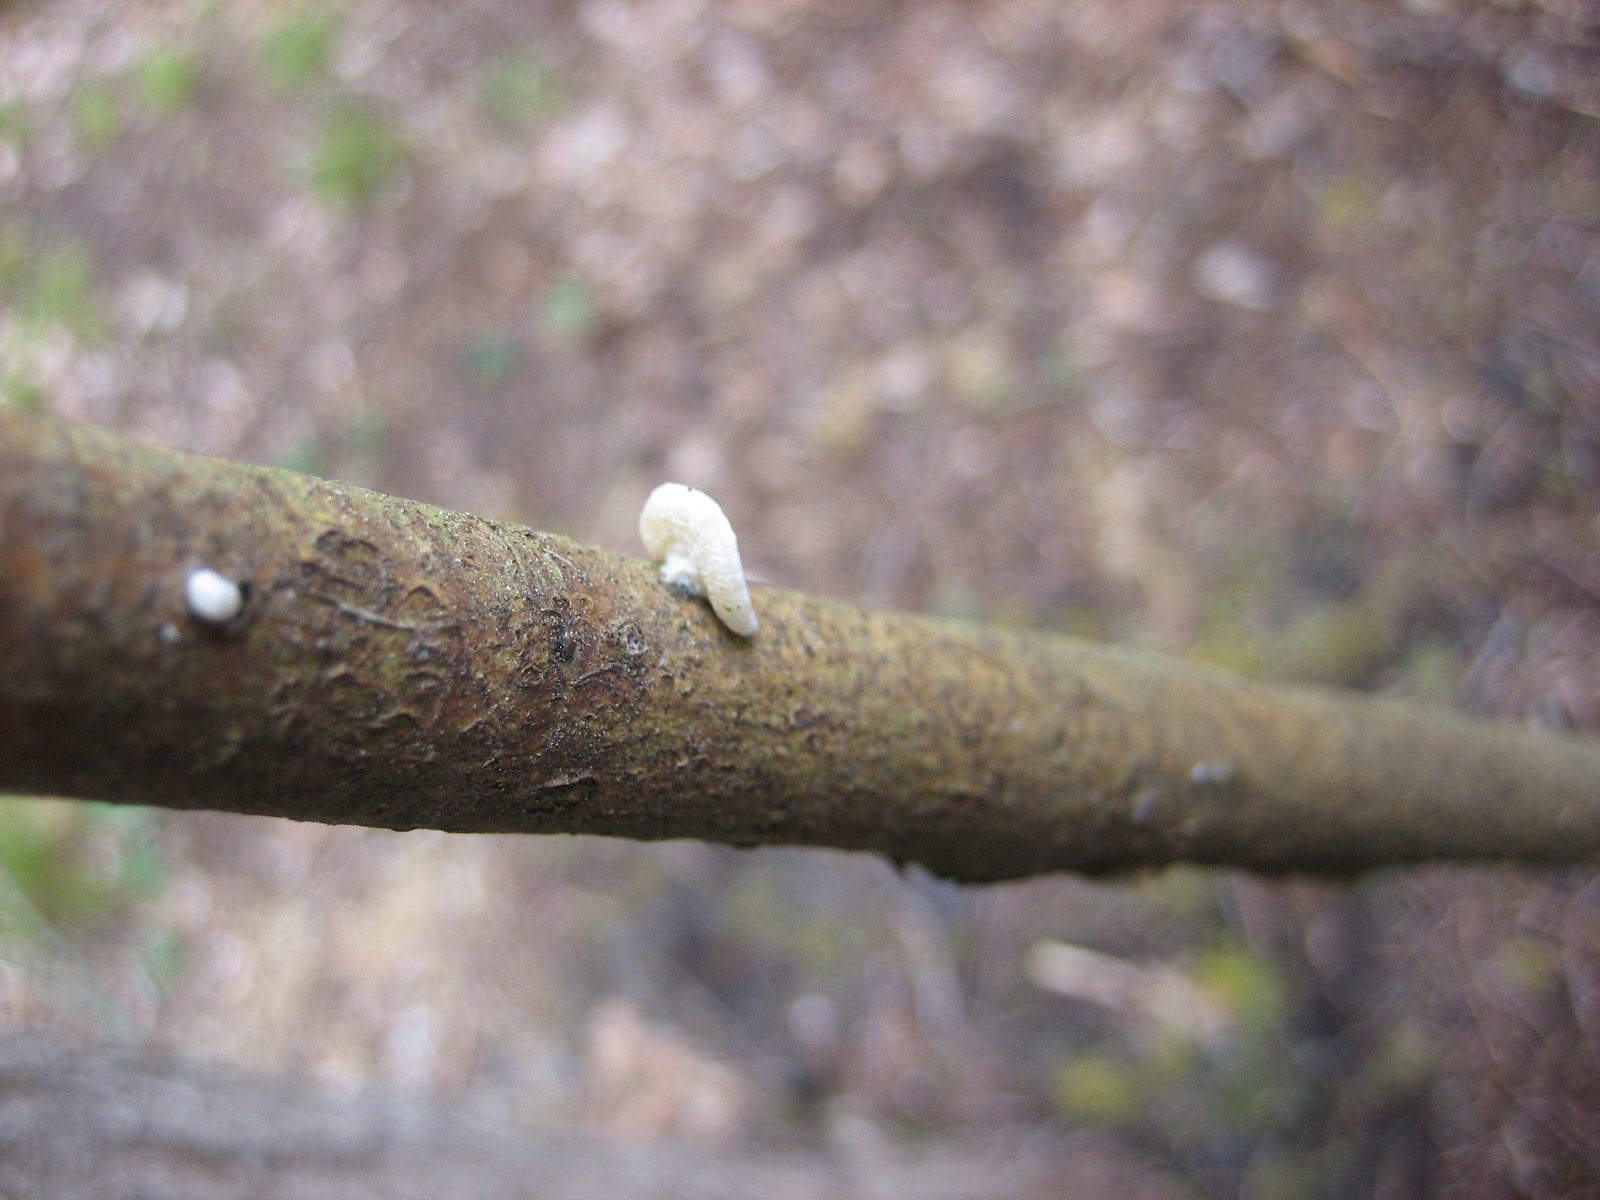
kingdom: Fungi
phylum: Basidiomycota
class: Agaricomycetes
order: Agaricales
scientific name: Agaricales
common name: champignonordenen
